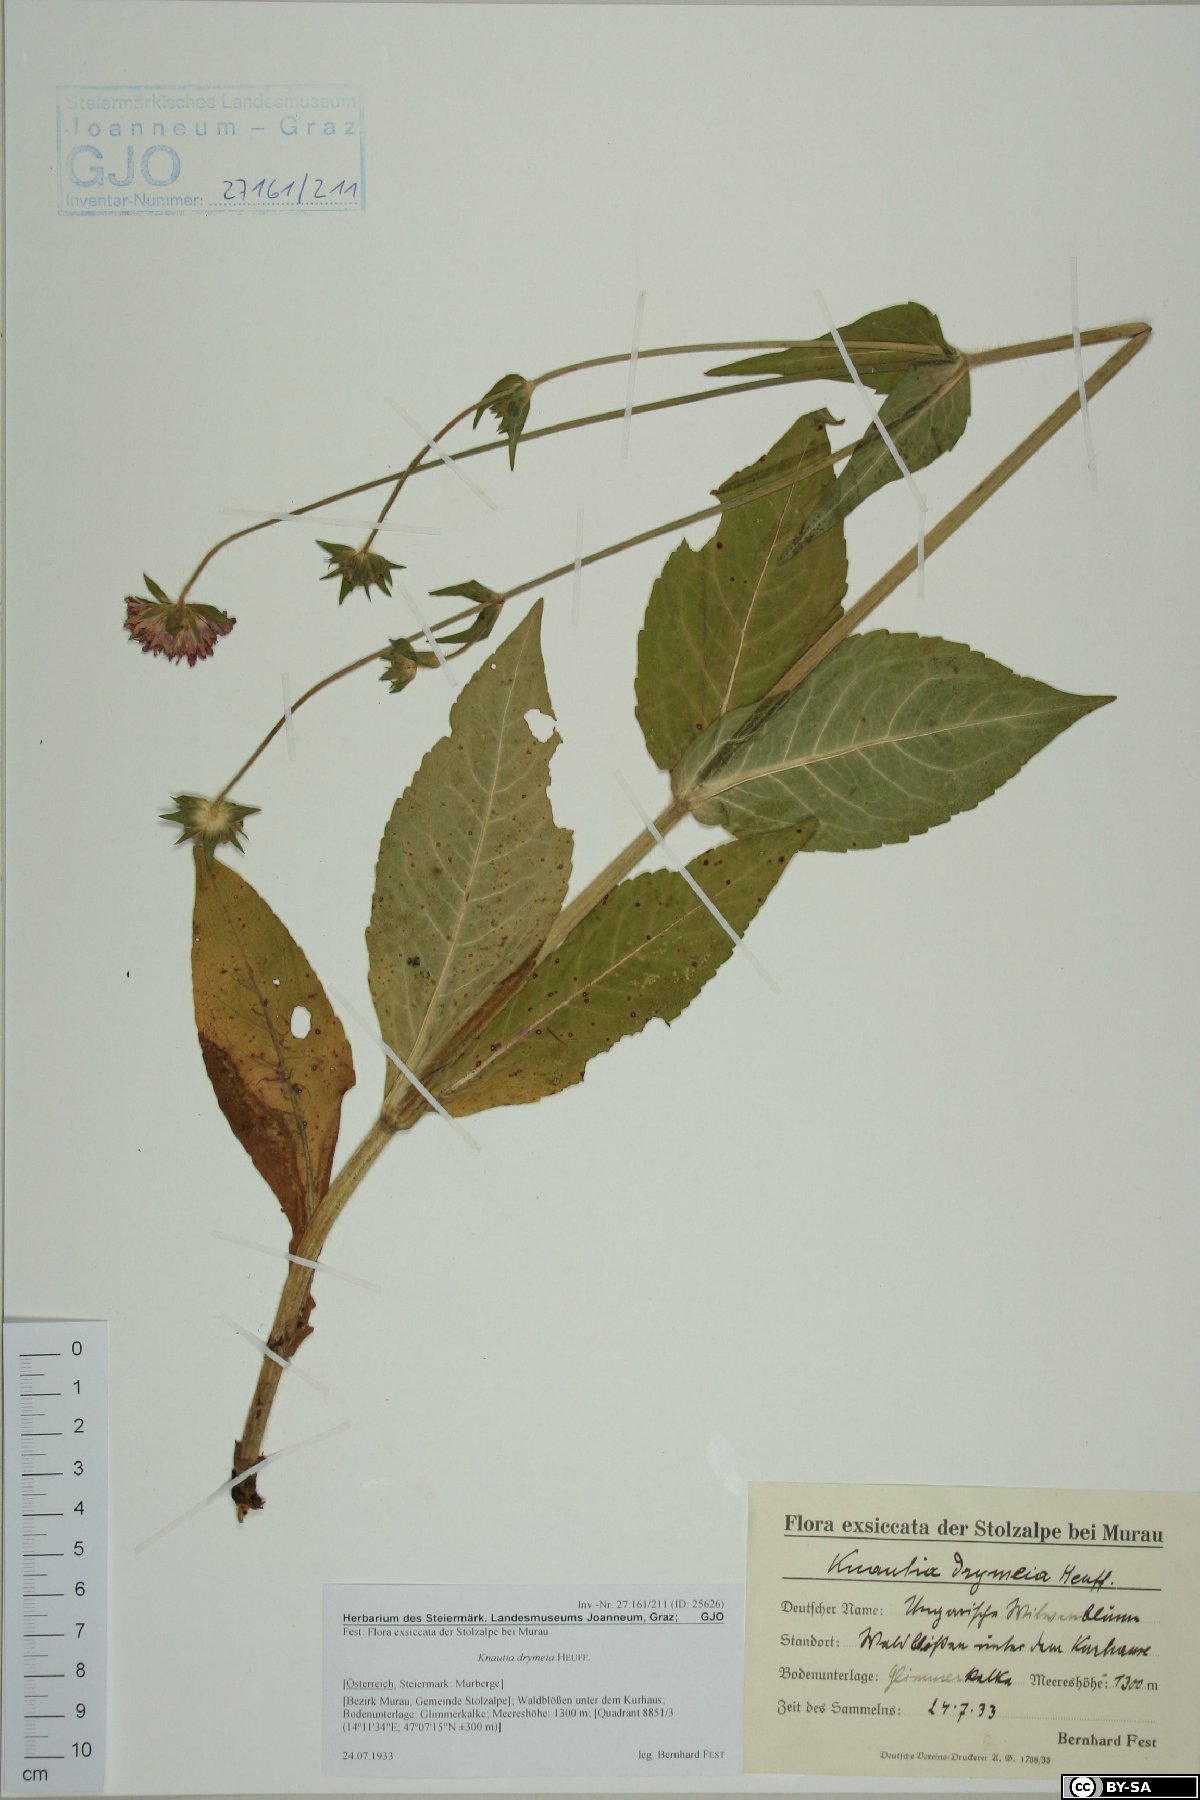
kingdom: Plantae
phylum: Tracheophyta
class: Magnoliopsida
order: Dipsacales
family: Caprifoliaceae
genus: Knautia
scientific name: Knautia drymeia
